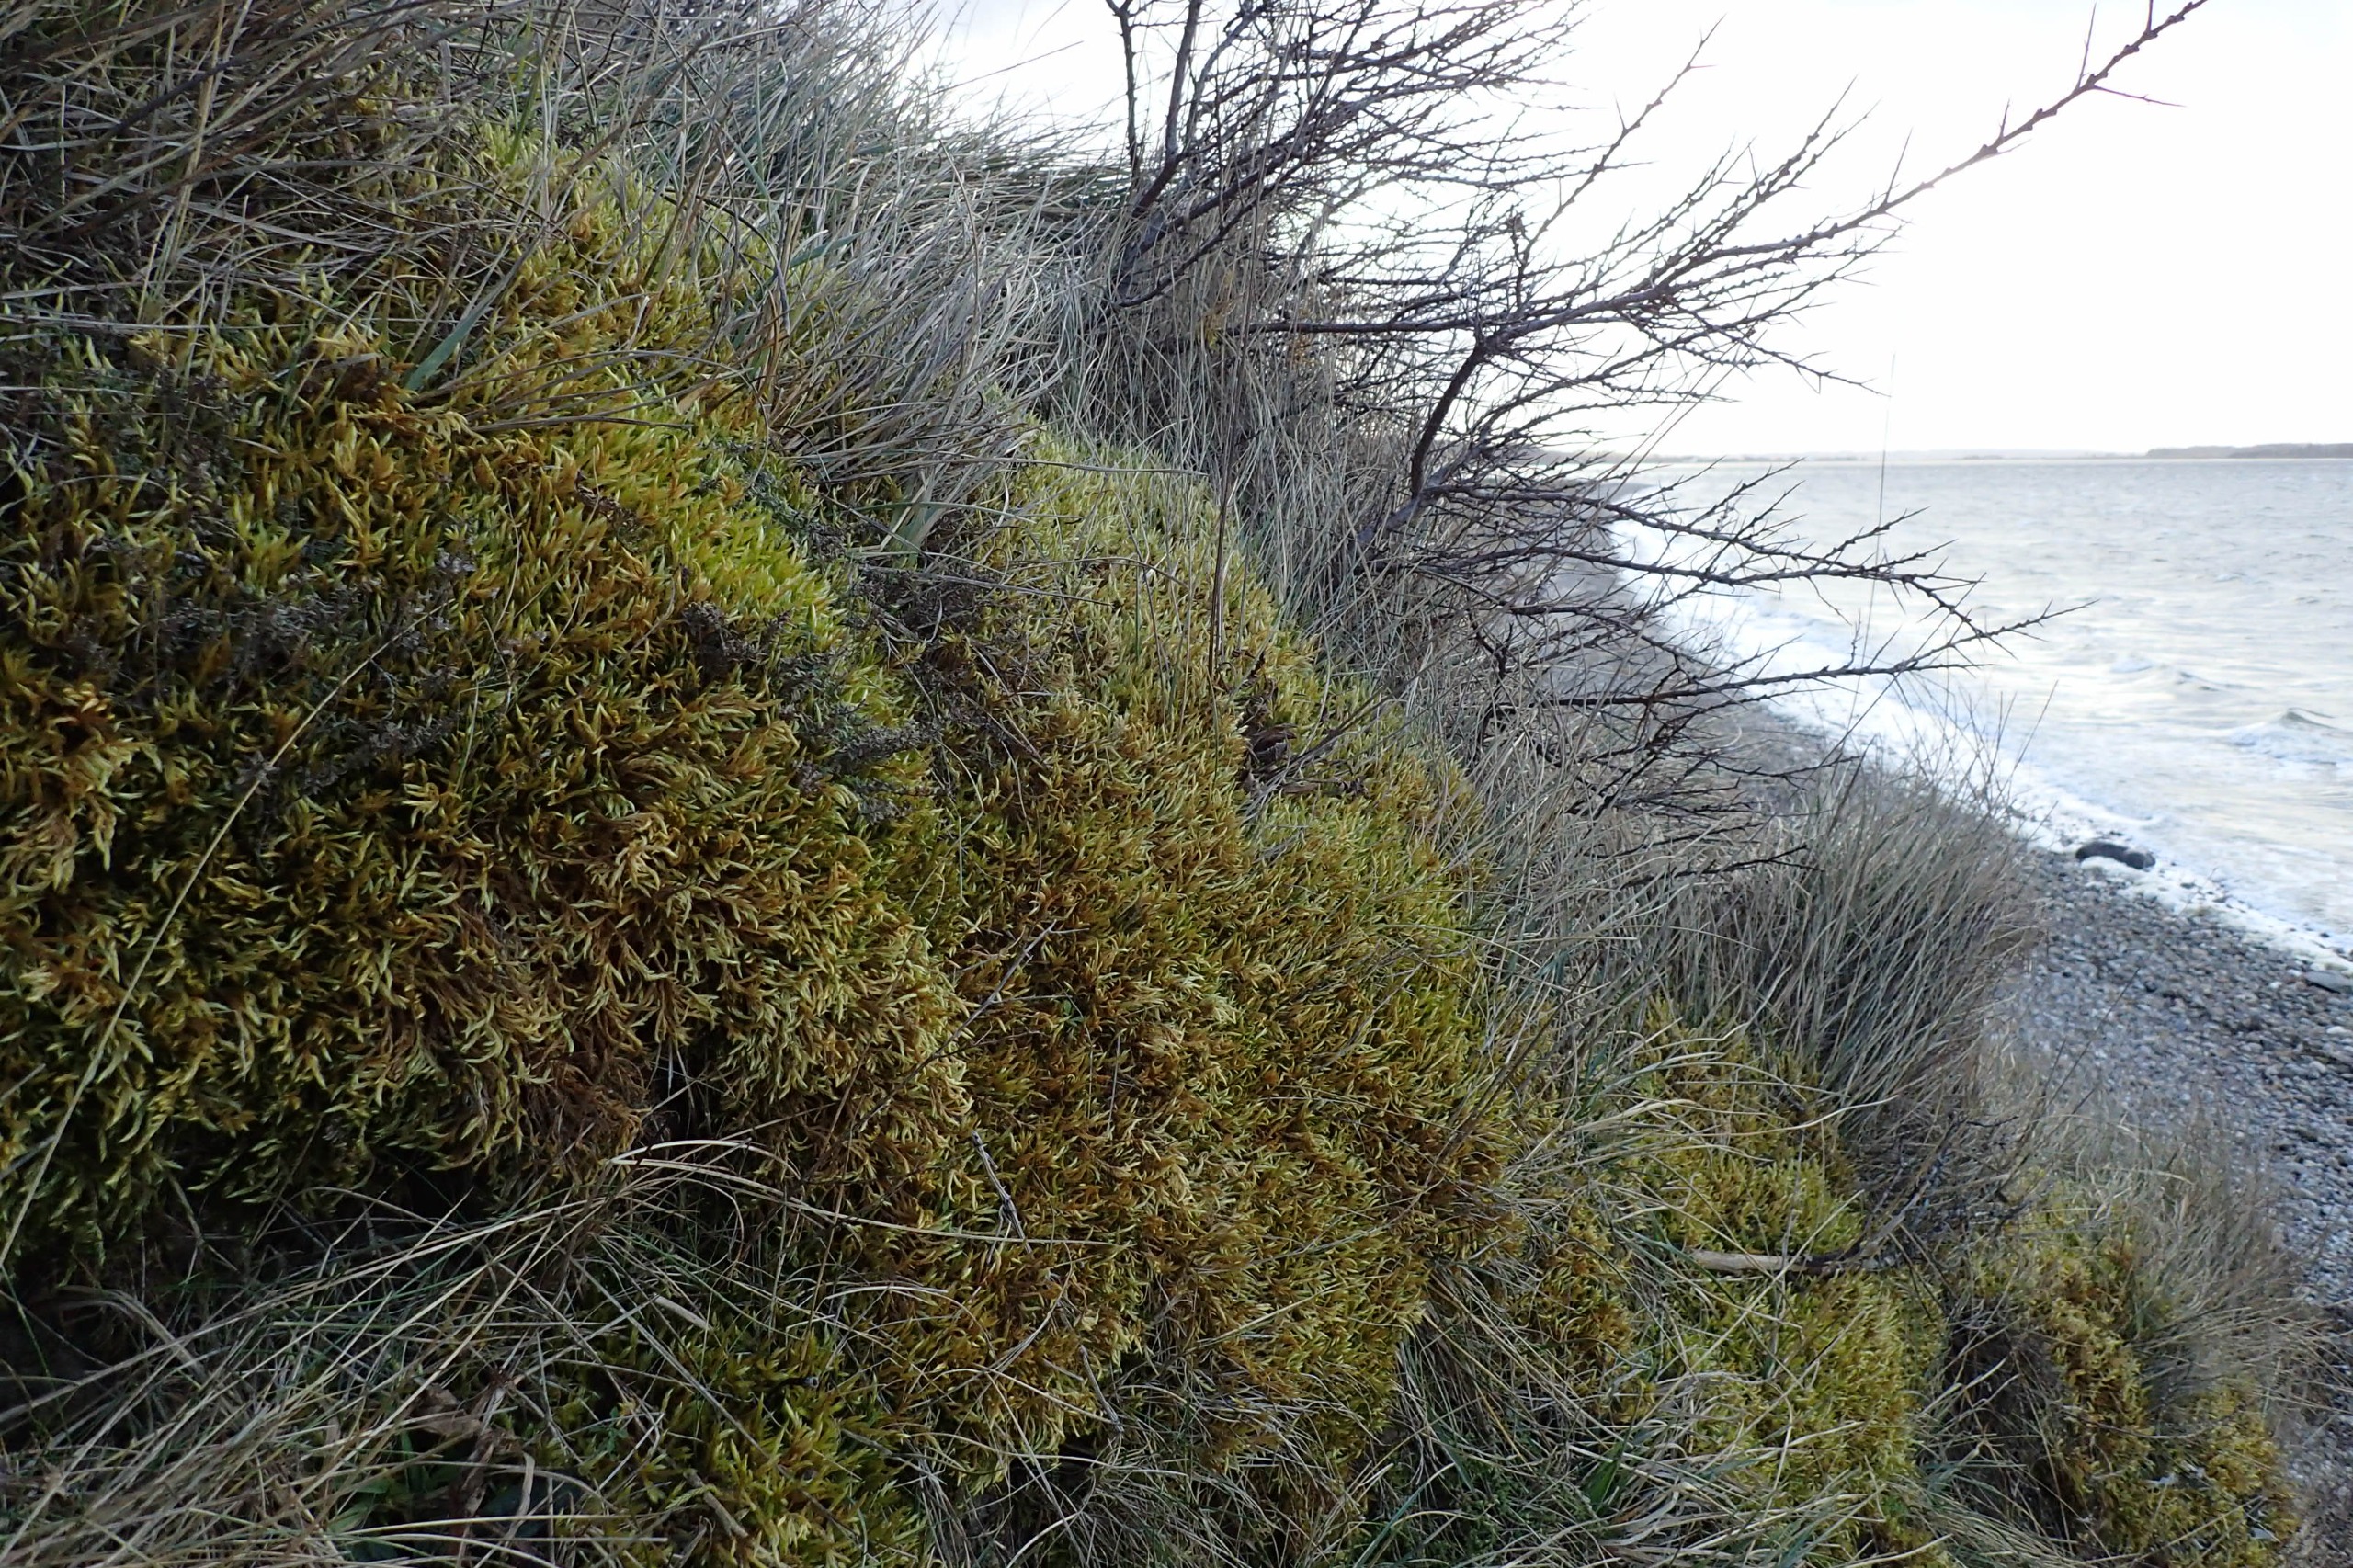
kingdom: Plantae
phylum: Bryophyta
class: Bryopsida
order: Hypnales
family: Brachytheciaceae
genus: Homalothecium
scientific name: Homalothecium lutescens
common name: Gul krumkapsel
